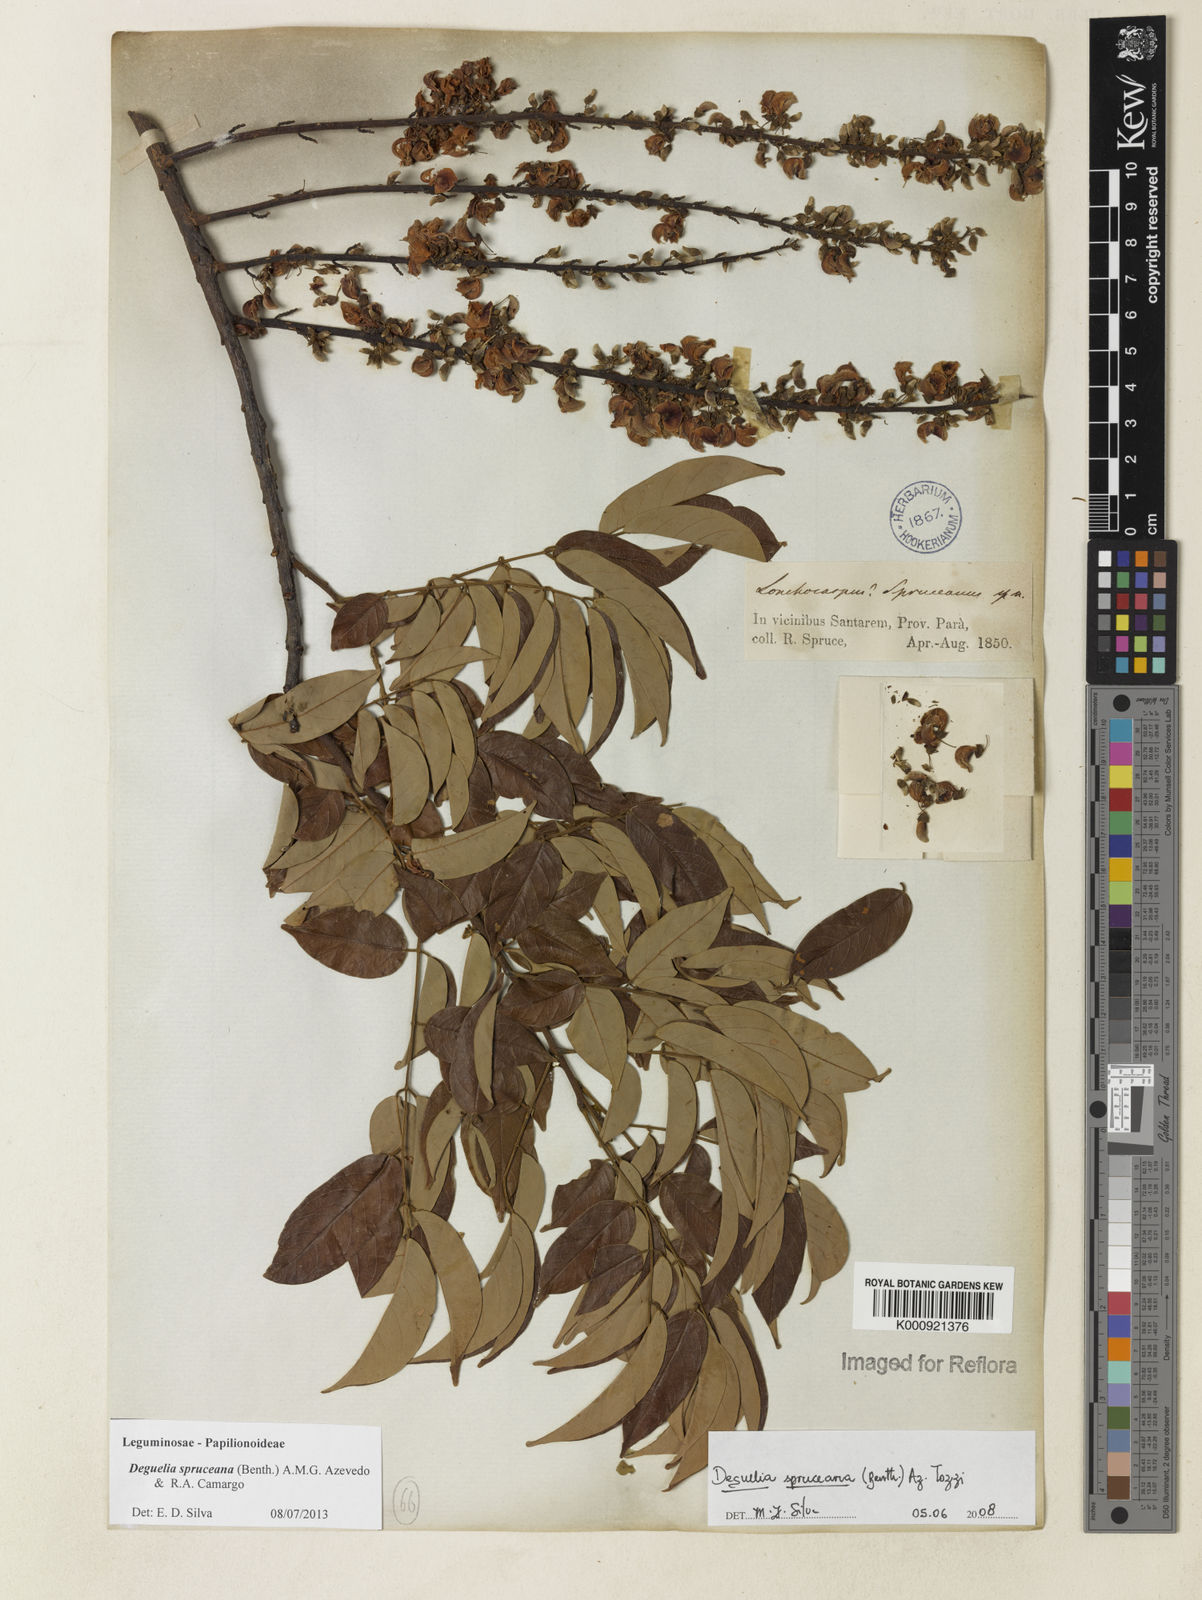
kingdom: Plantae
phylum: Tracheophyta
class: Magnoliopsida
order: Fabales
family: Fabaceae
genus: Deguelia
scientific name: Deguelia spruceana
